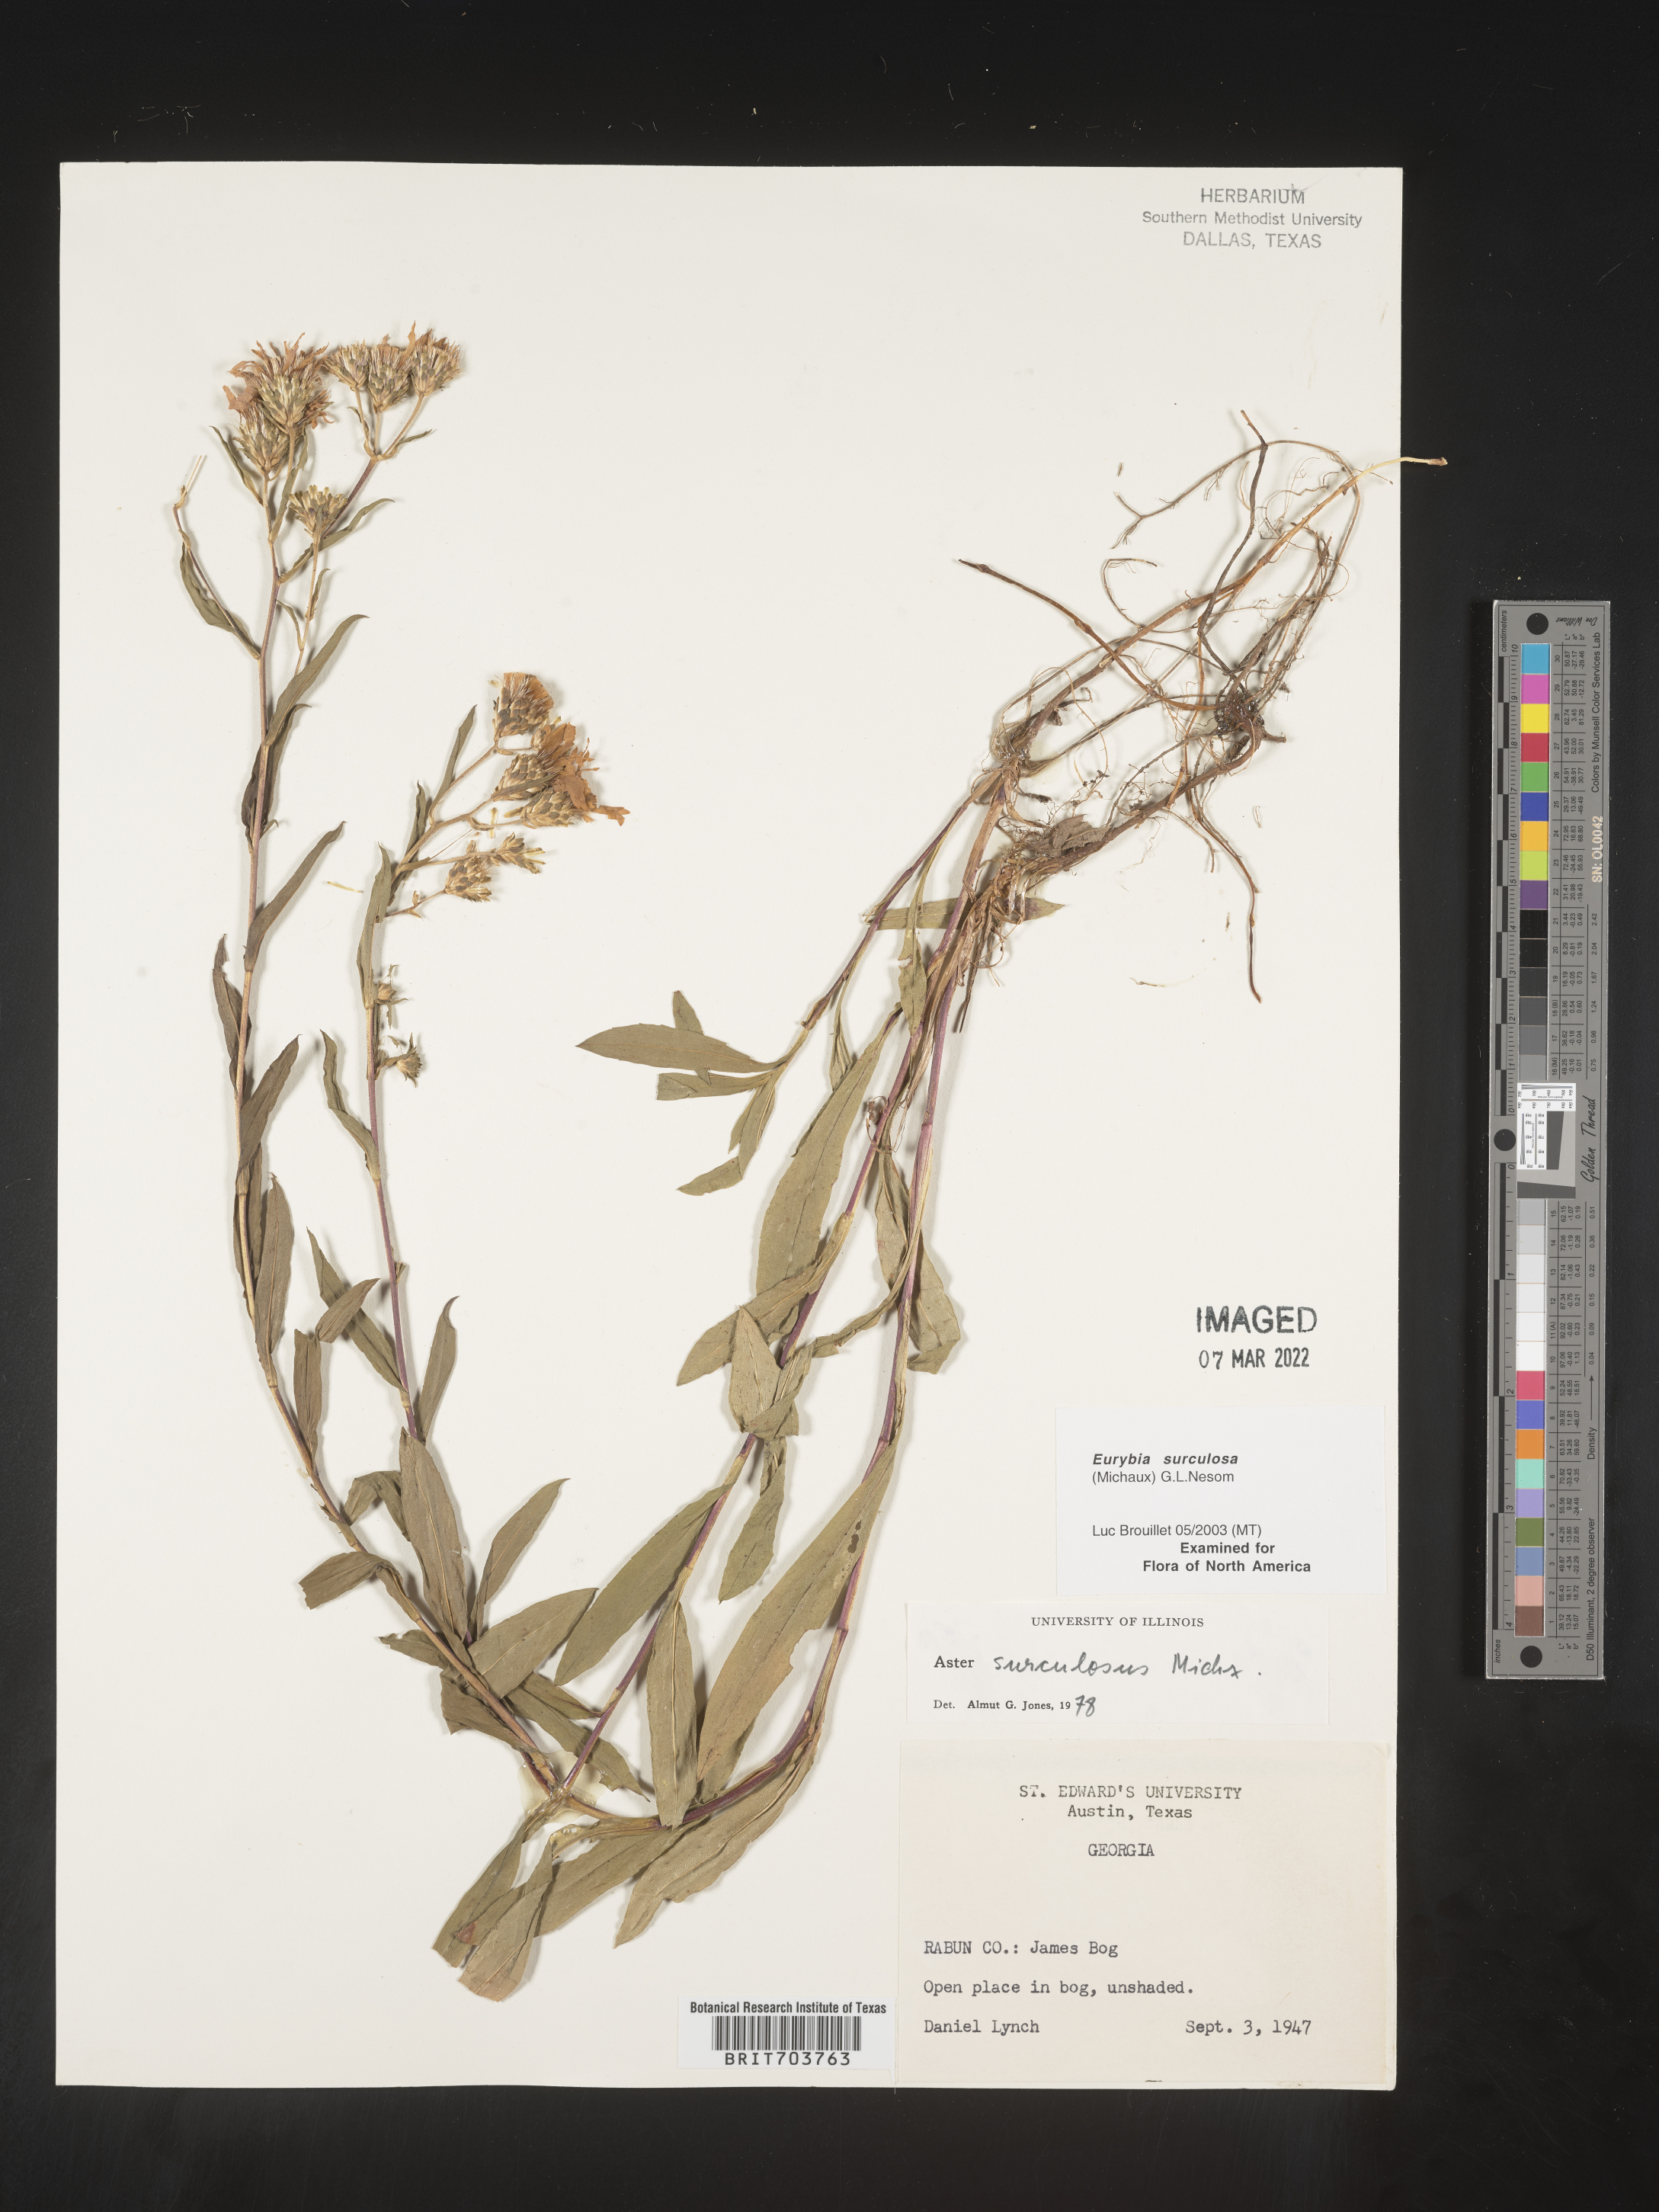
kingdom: Plantae
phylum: Tracheophyta
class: Magnoliopsida
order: Asterales
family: Asteraceae
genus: Eurybia
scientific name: Eurybia surculosa
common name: Creeping aster
